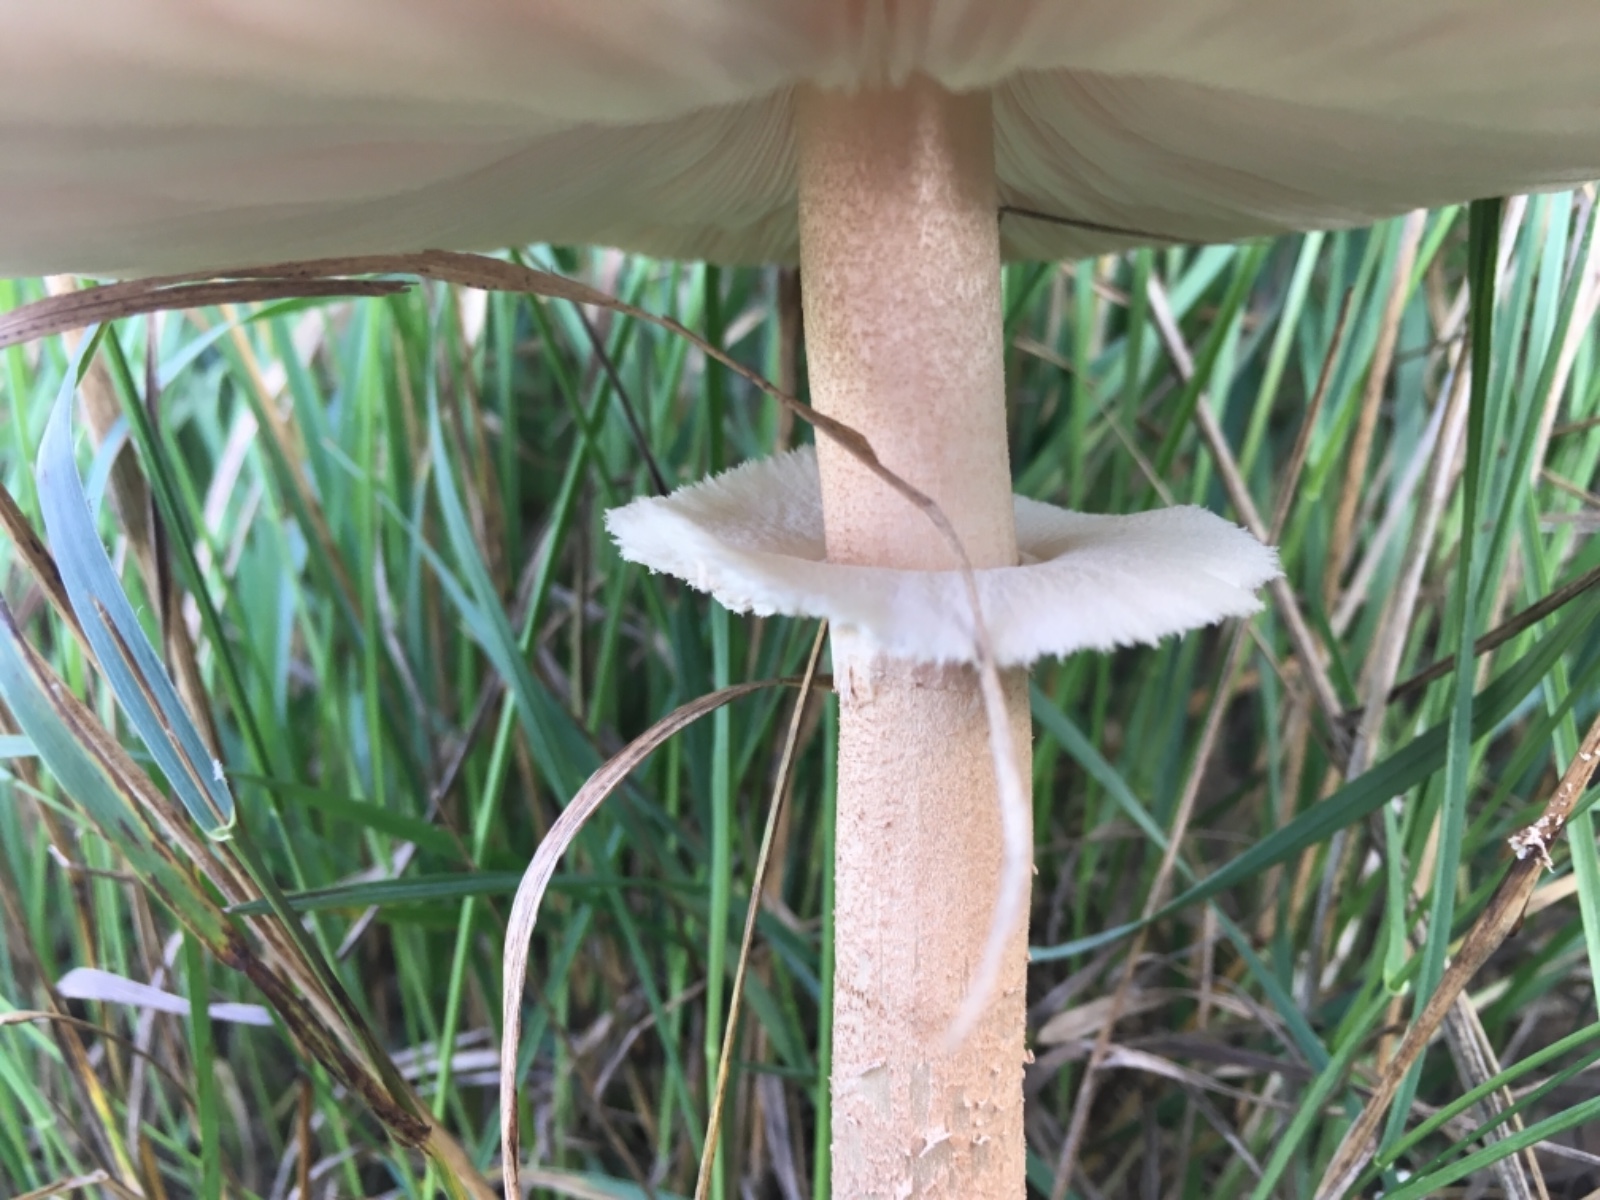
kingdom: Fungi
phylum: Basidiomycota
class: Agaricomycetes
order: Agaricales
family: Agaricaceae
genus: Macrolepiota
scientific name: Macrolepiota
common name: kæmpeparasolhat
